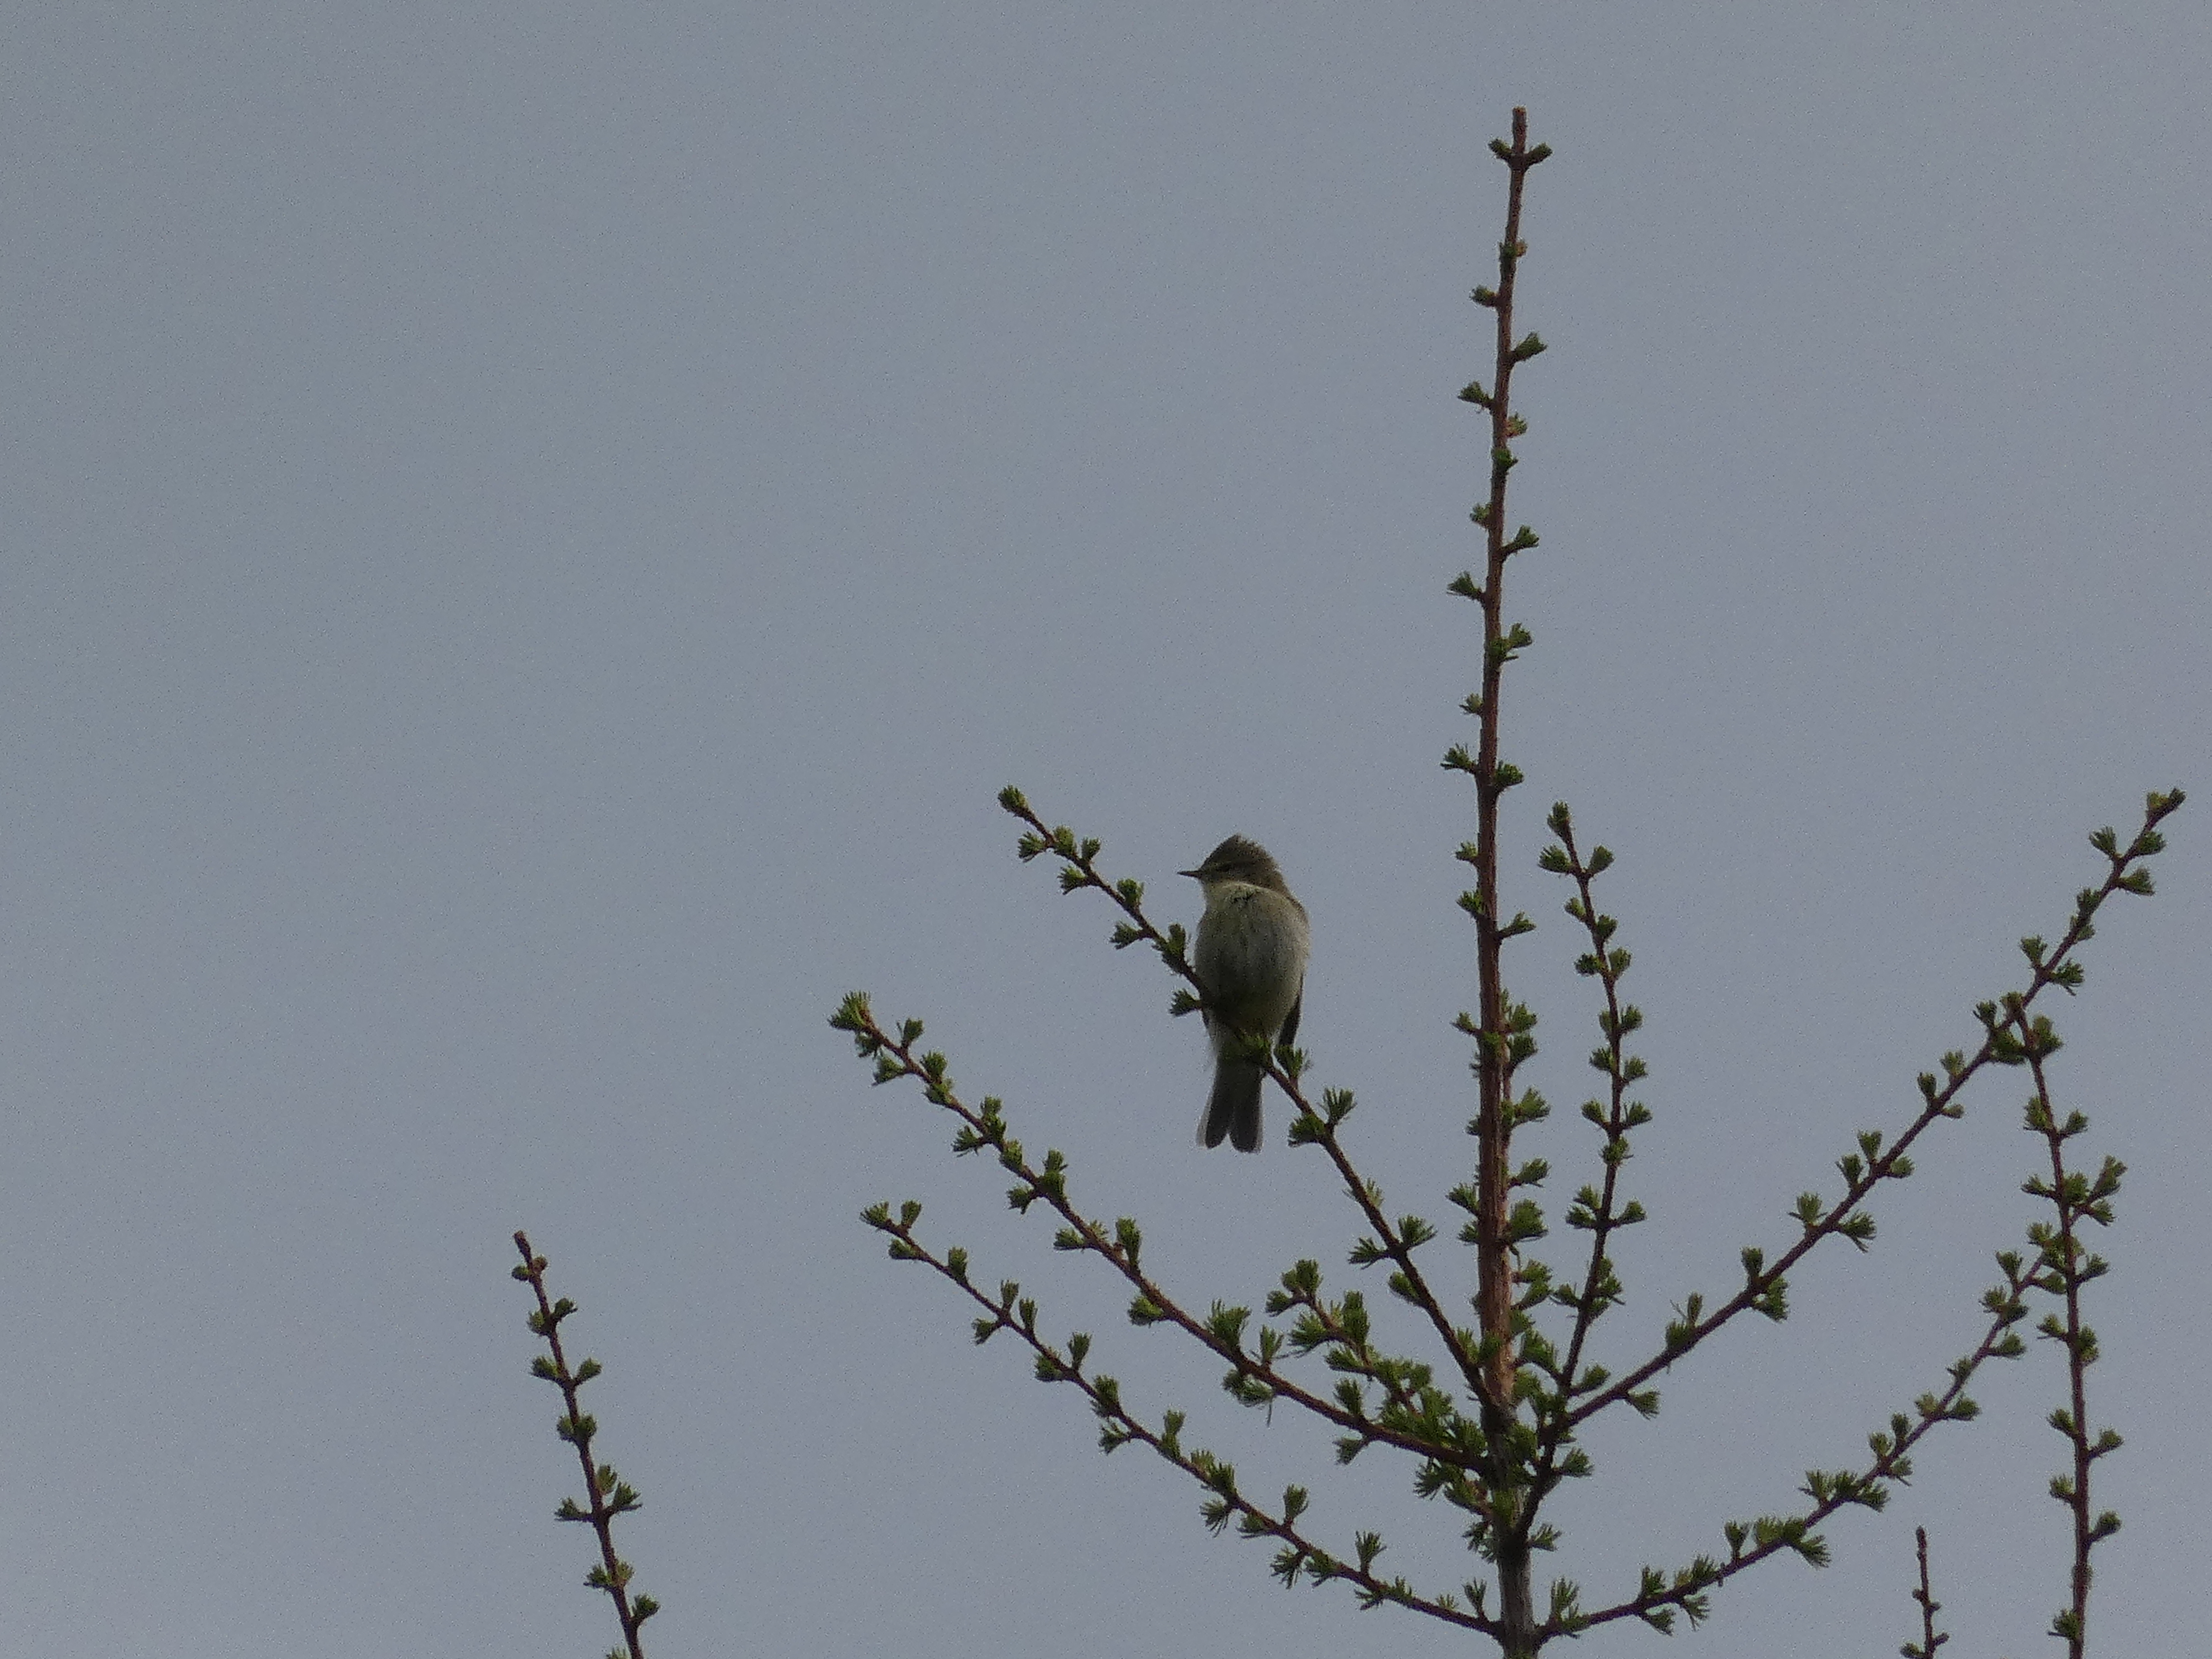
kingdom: Animalia
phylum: Chordata
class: Aves
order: Passeriformes
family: Phylloscopidae
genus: Phylloscopus
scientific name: Phylloscopus collybita
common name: Gransanger
